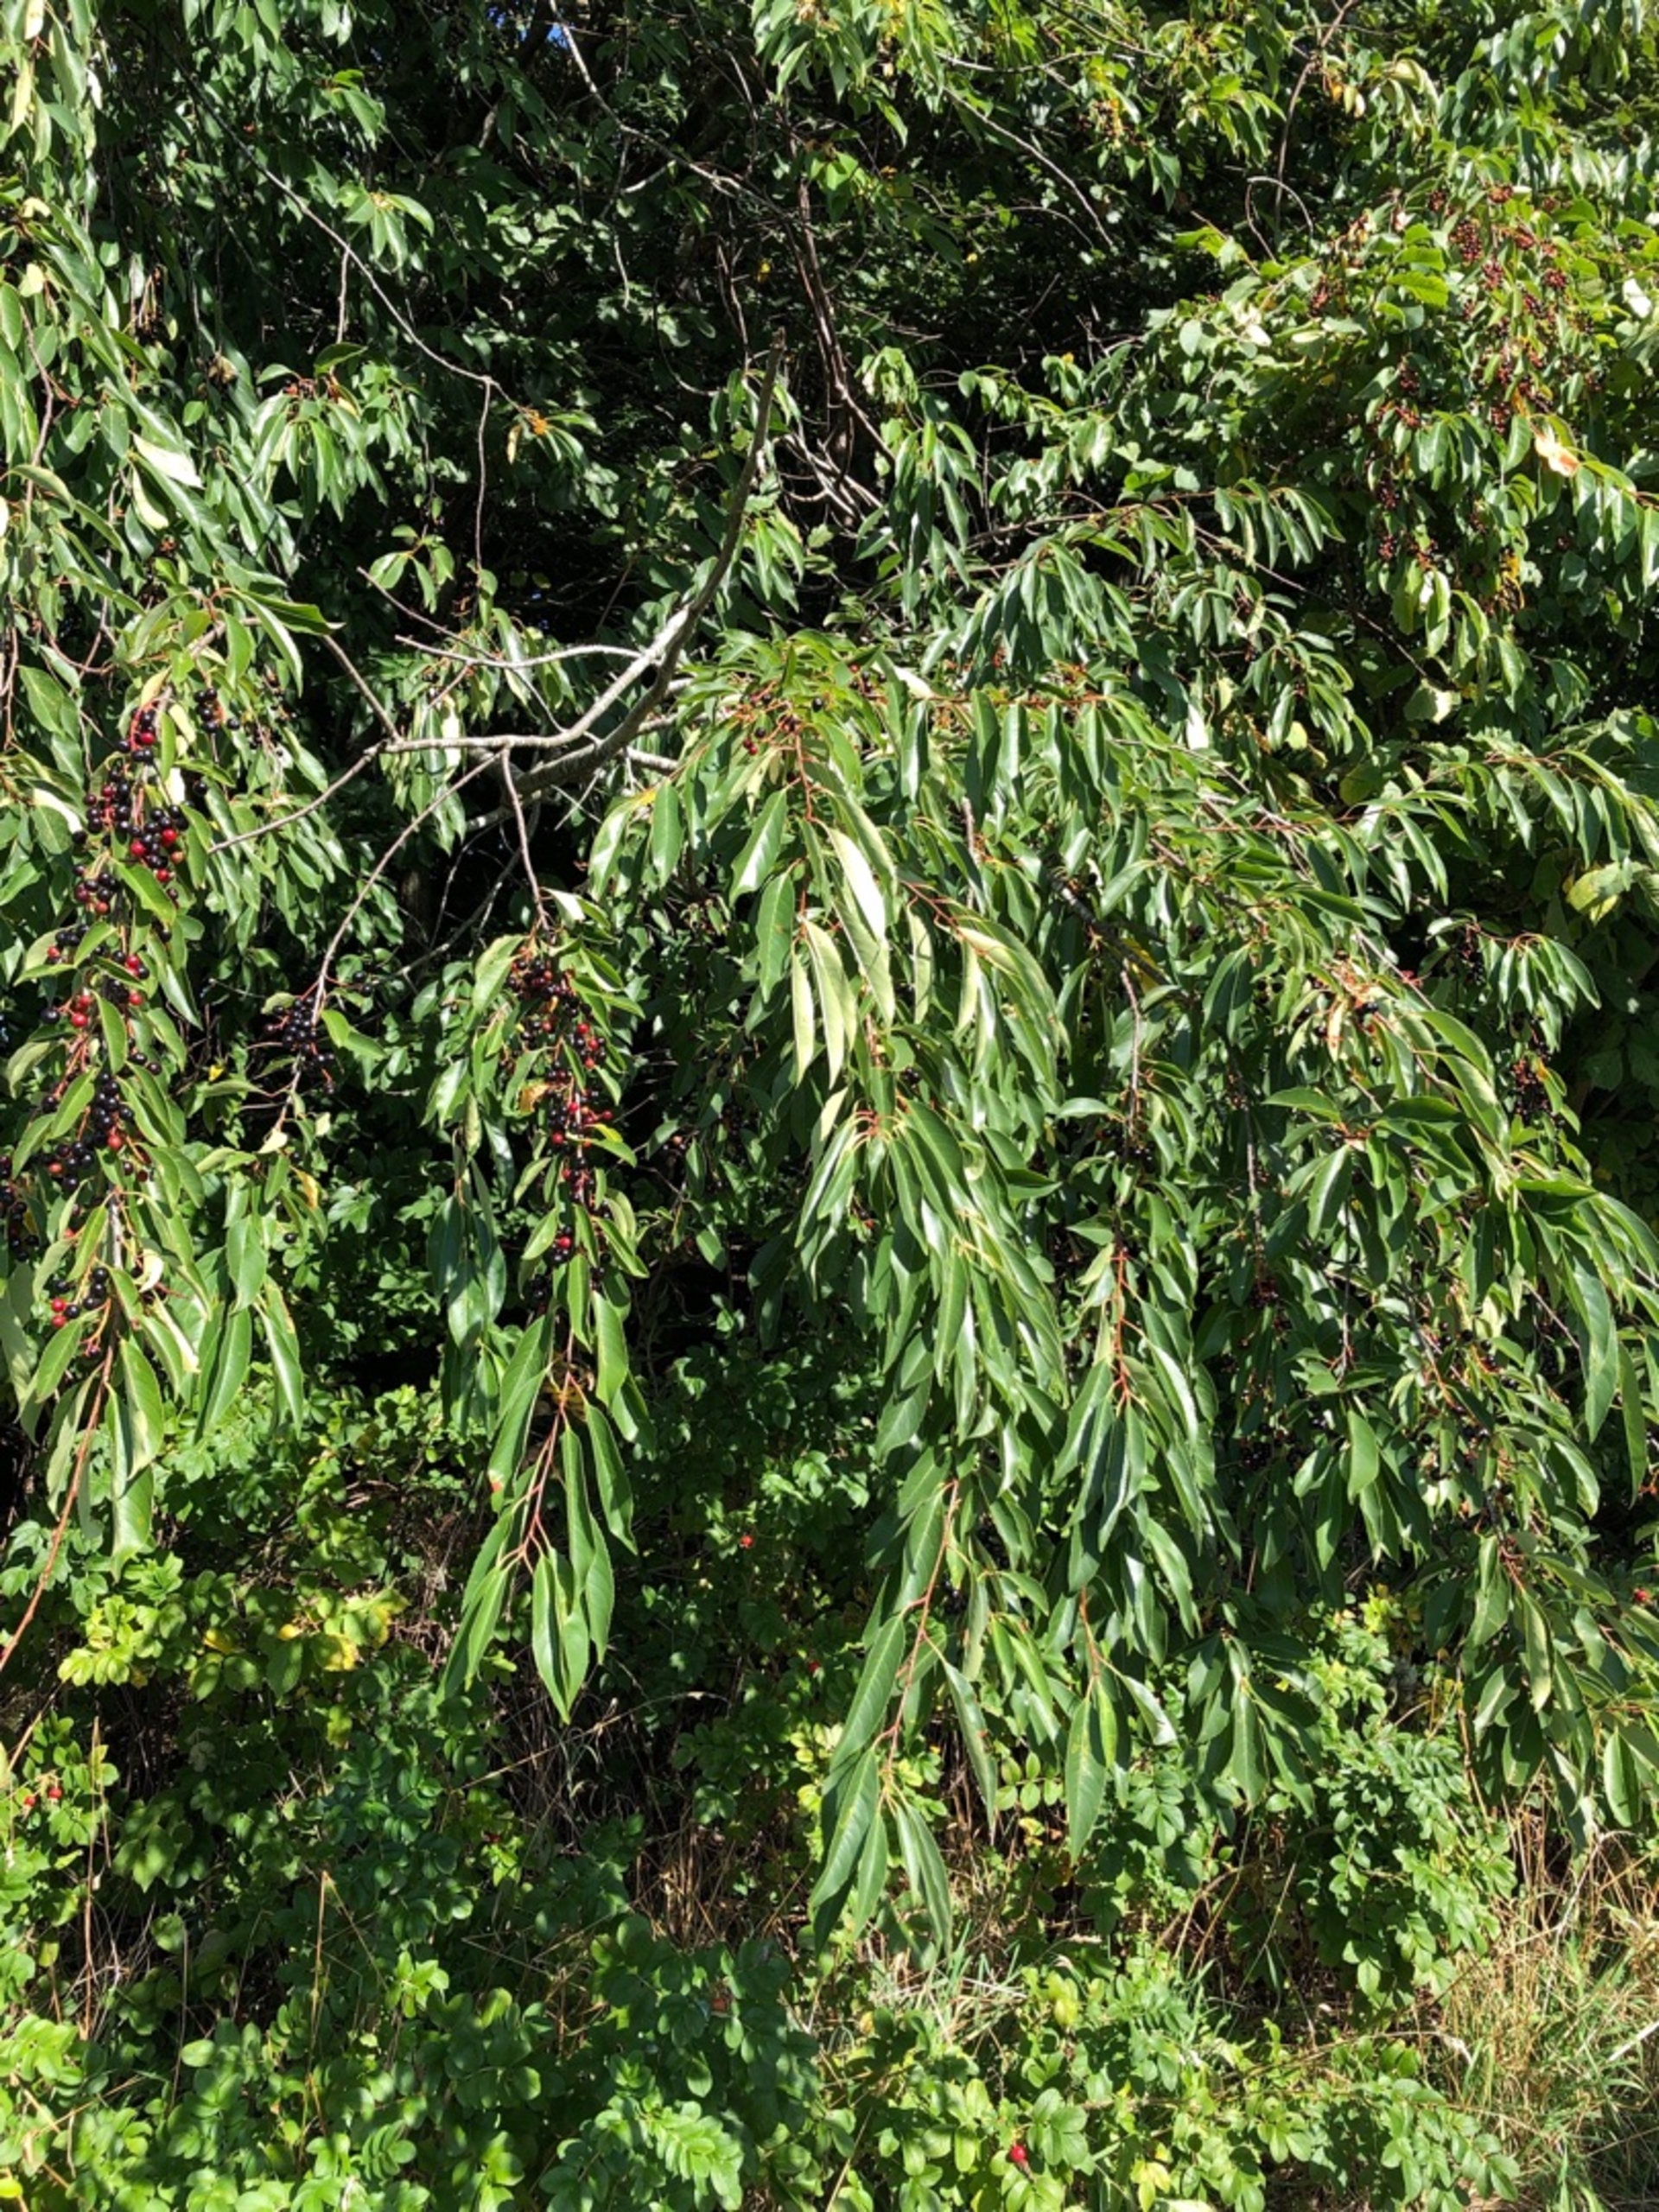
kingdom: Plantae
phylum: Tracheophyta
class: Magnoliopsida
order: Rosales
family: Rosaceae
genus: Prunus
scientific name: Prunus serotina
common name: Glansbladet hæg
